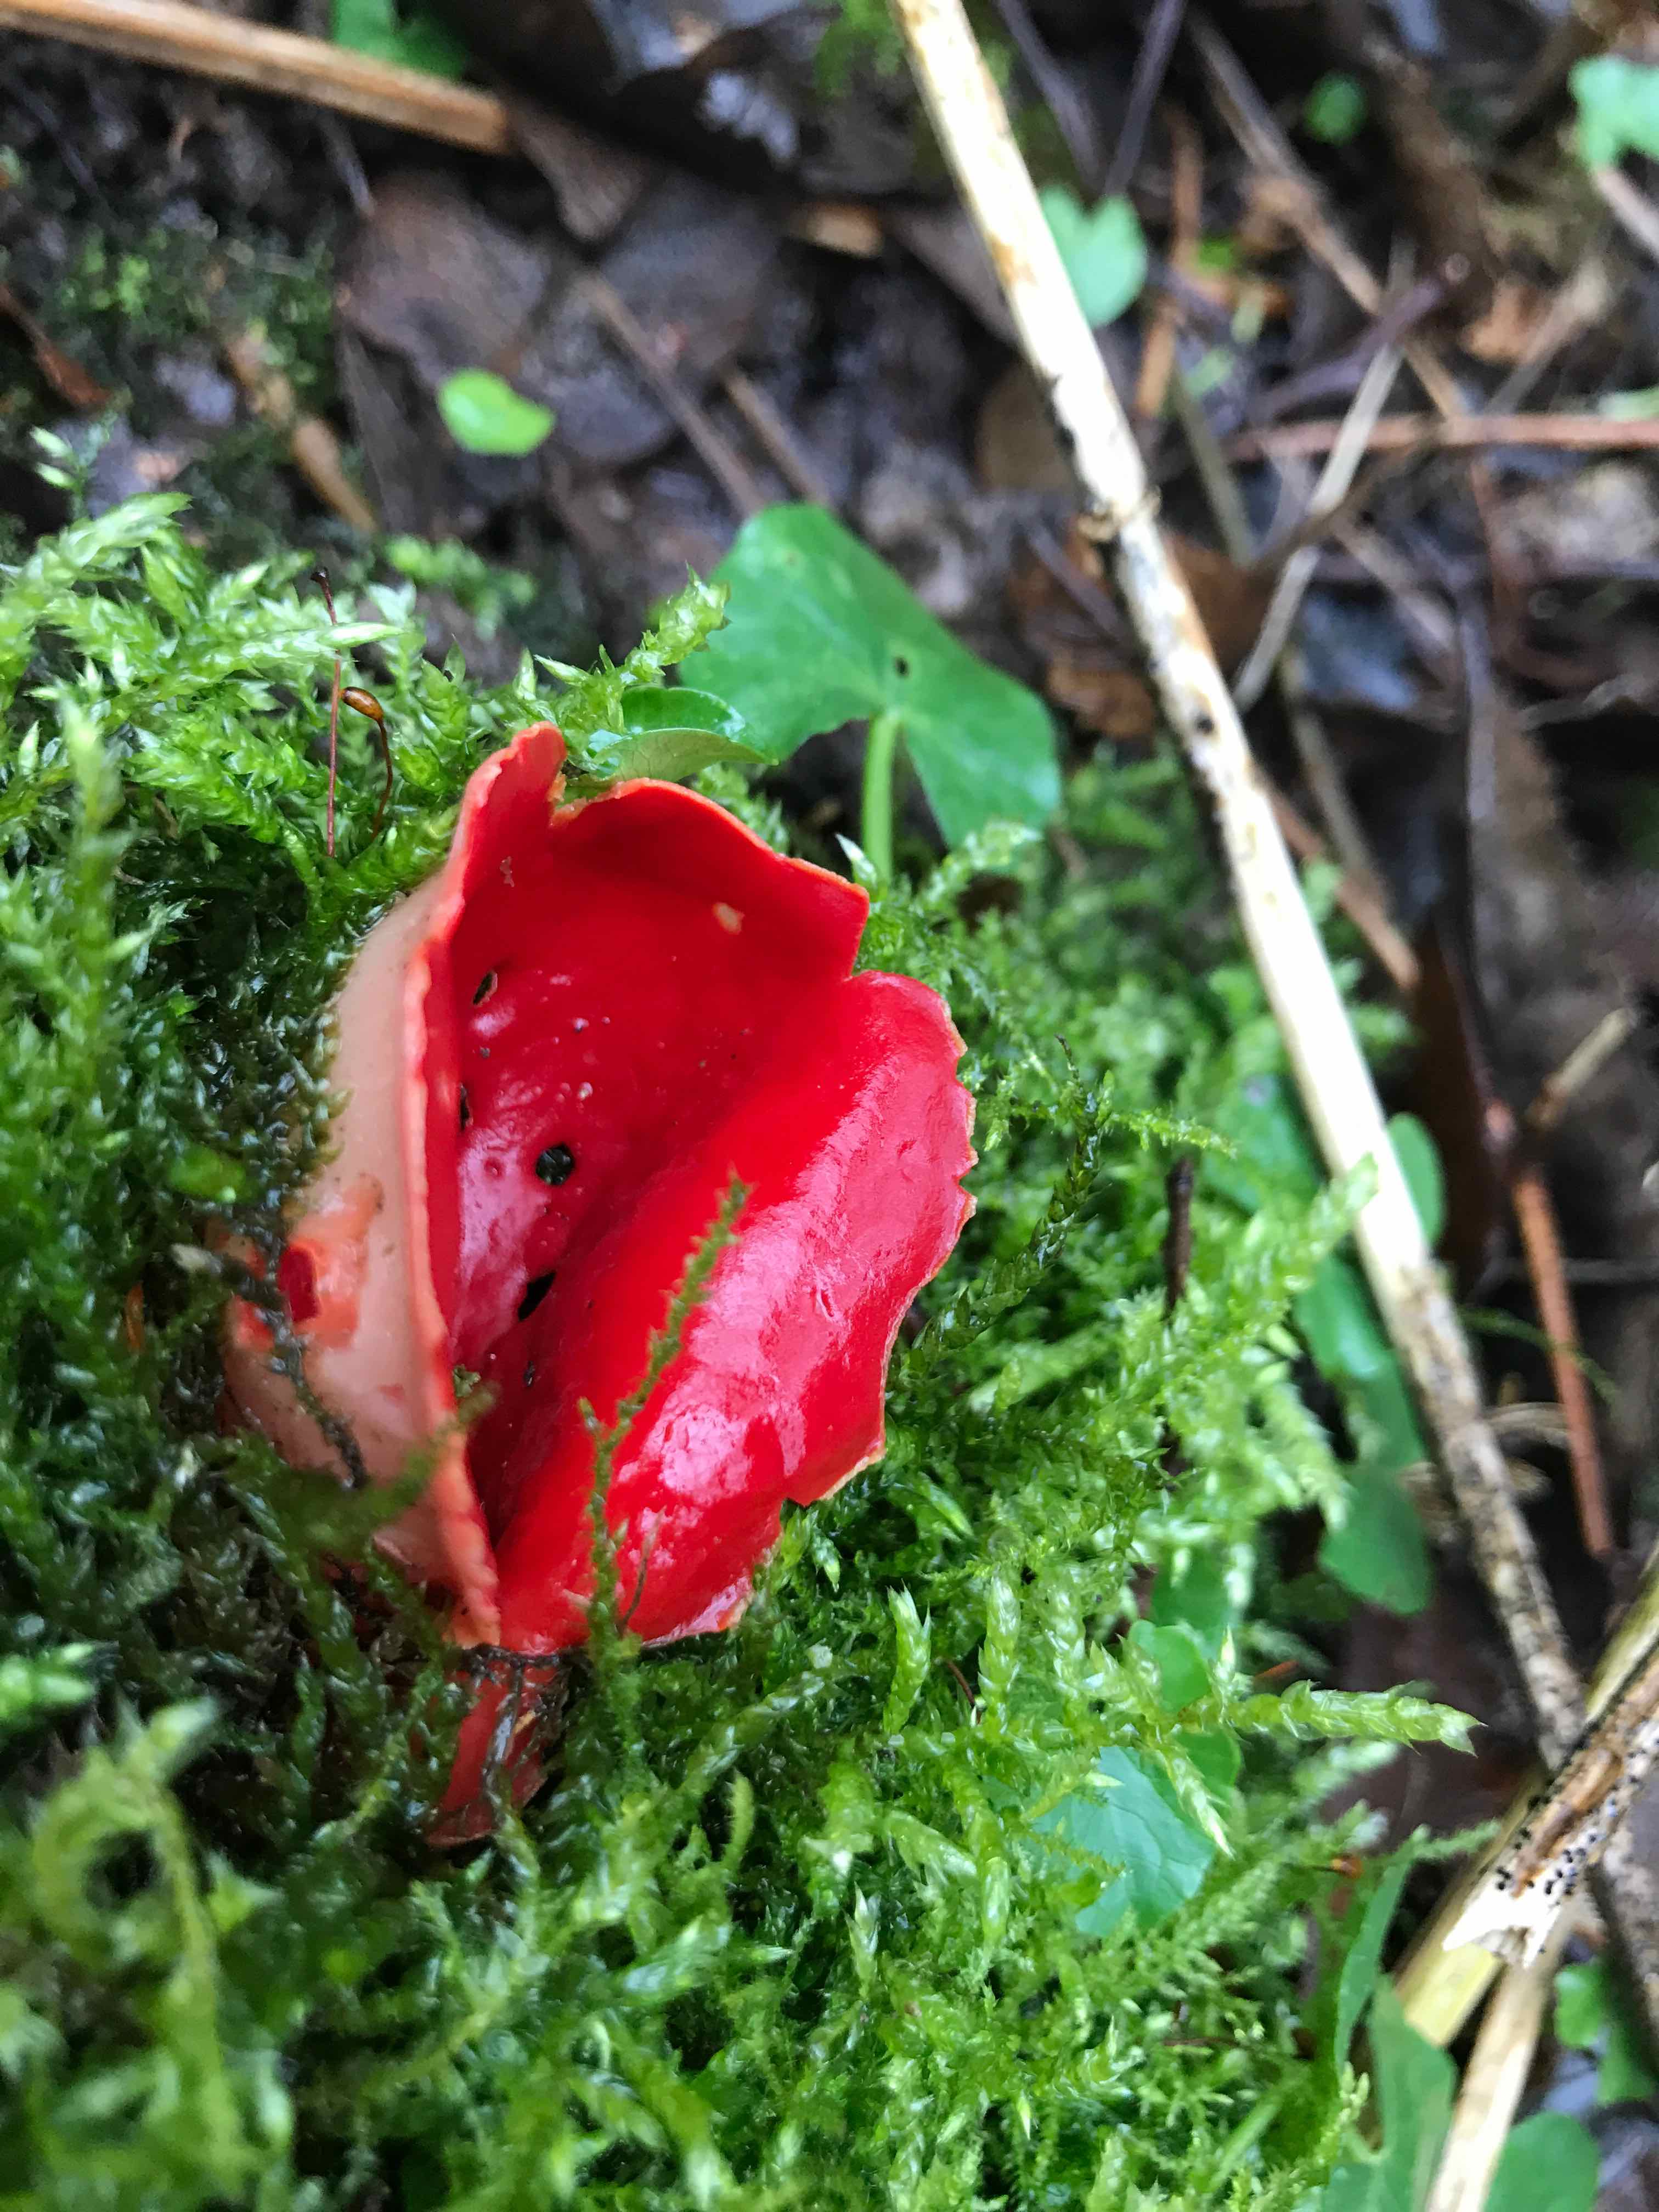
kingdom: Fungi
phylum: Ascomycota
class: Pezizomycetes
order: Pezizales
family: Sarcoscyphaceae
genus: Sarcoscypha
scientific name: Sarcoscypha
